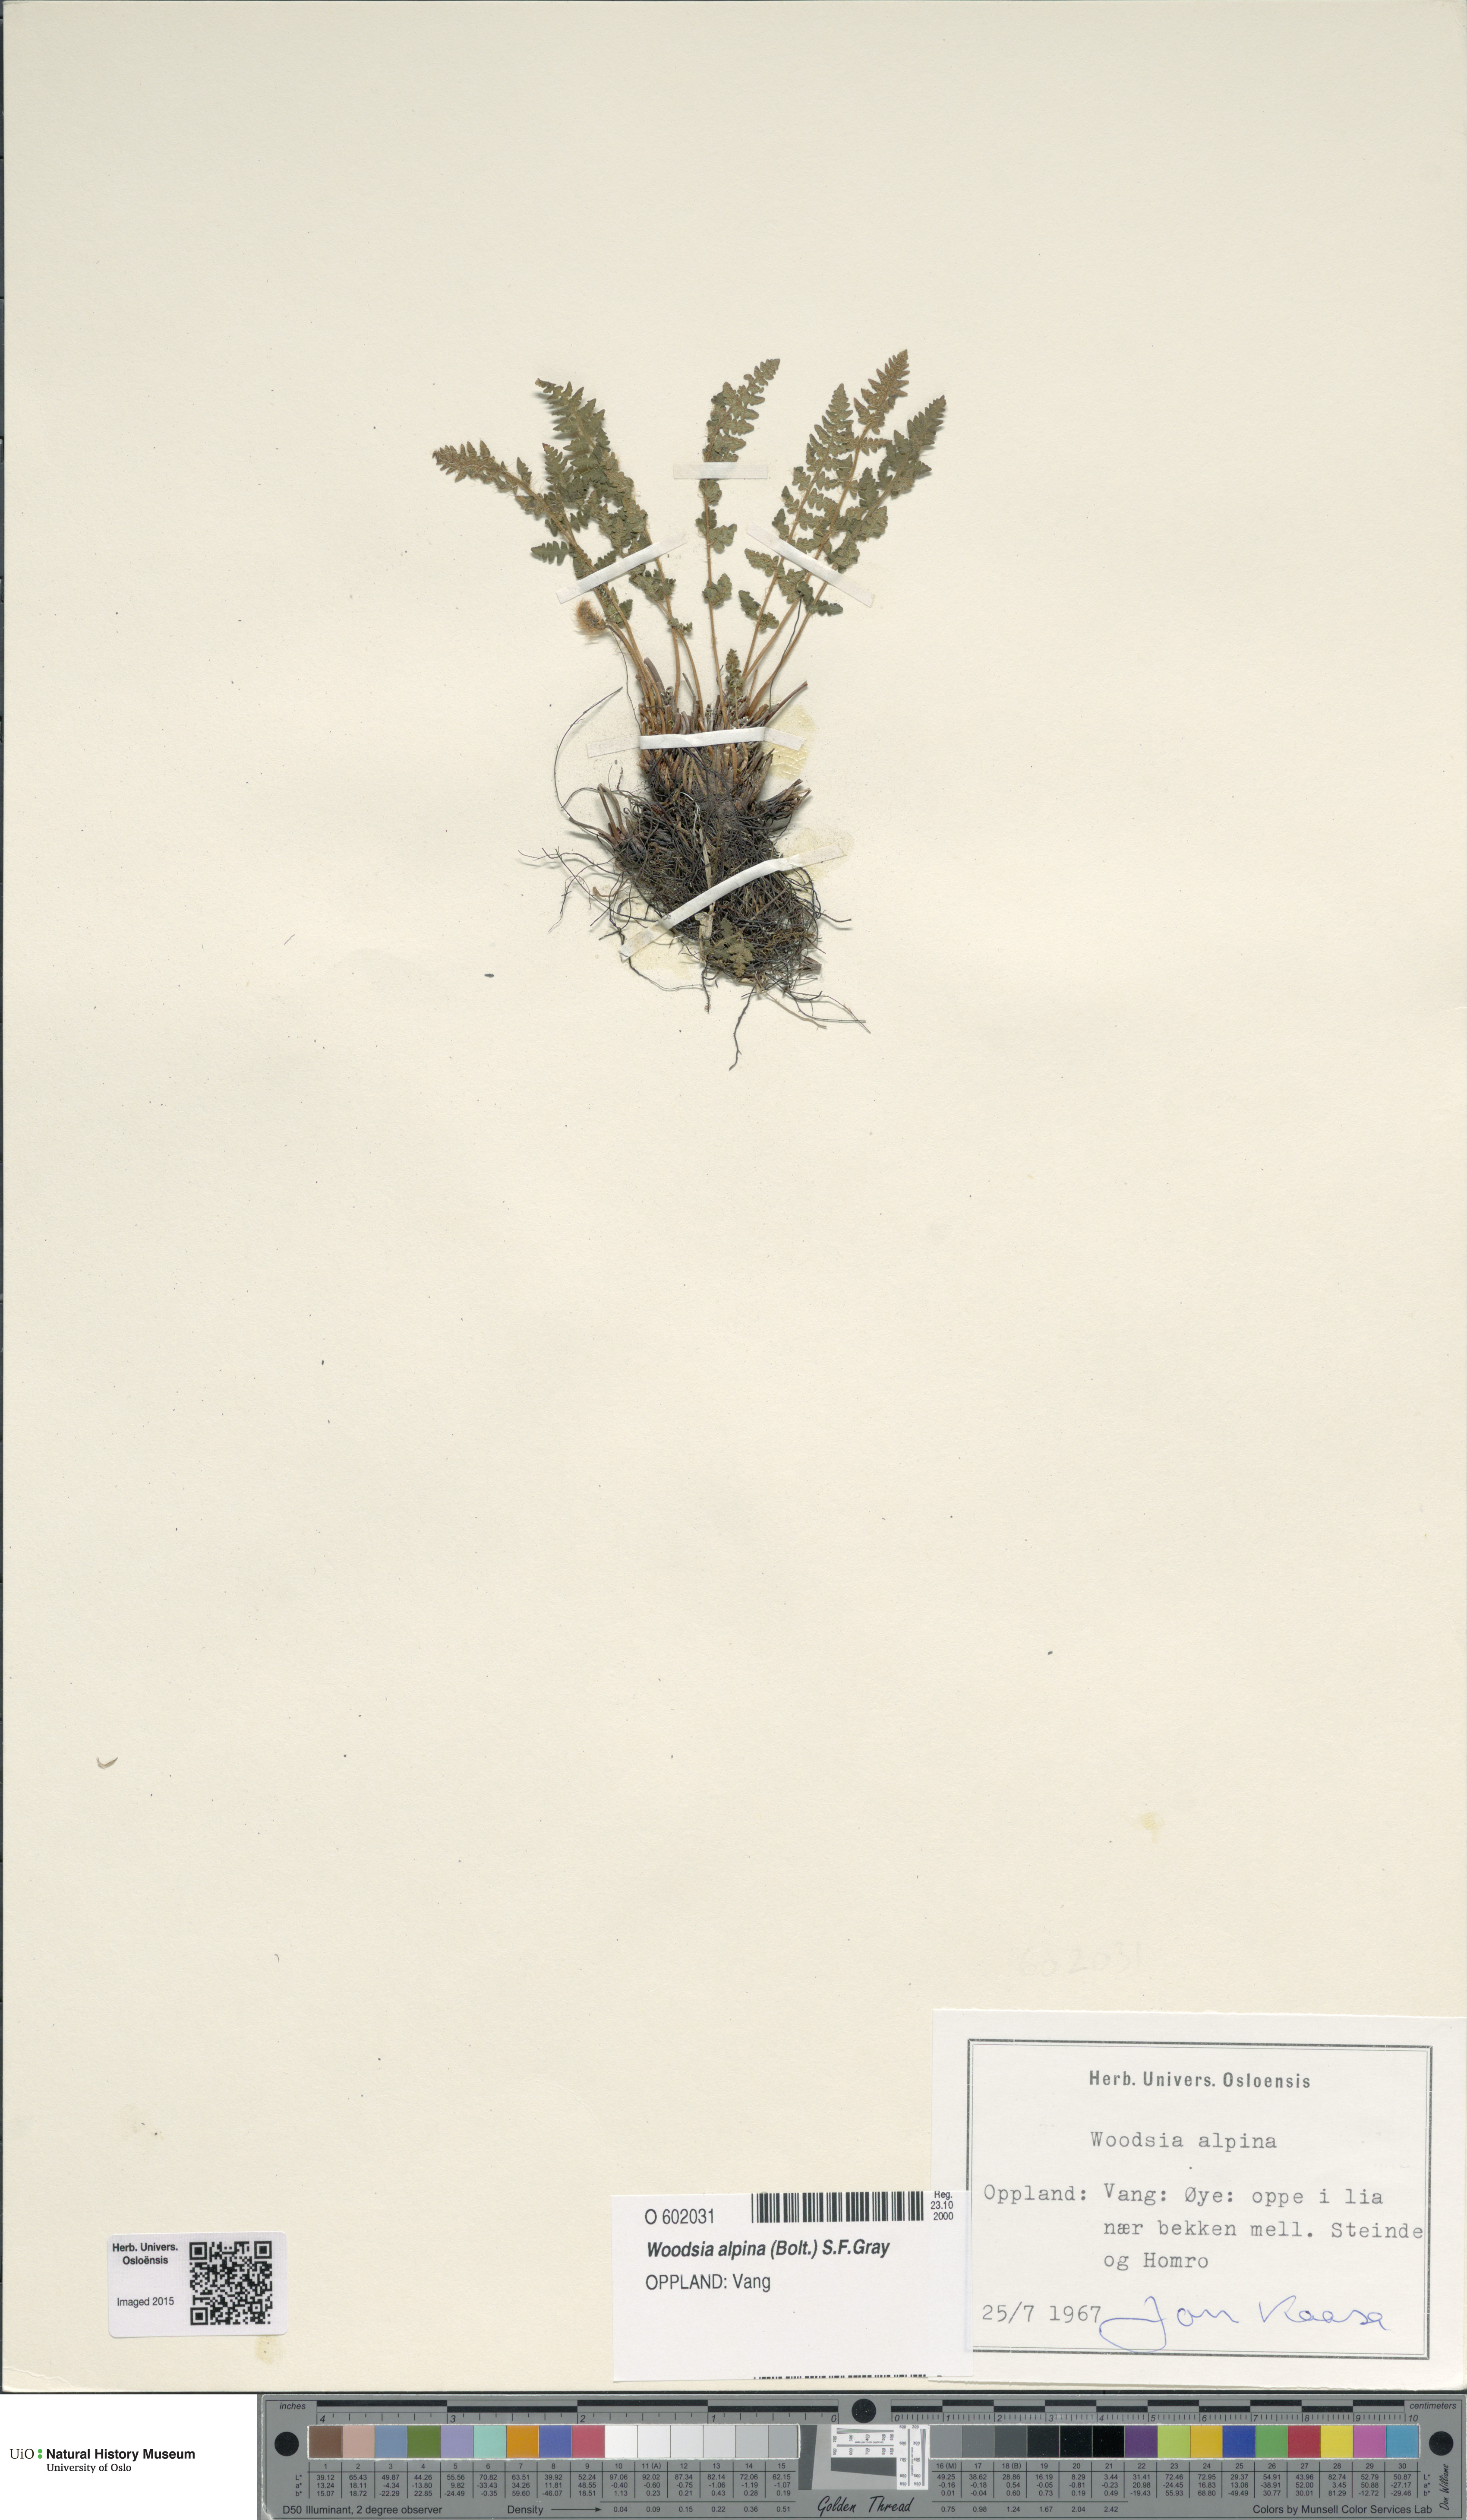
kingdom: Plantae
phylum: Tracheophyta
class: Polypodiopsida
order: Polypodiales
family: Woodsiaceae
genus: Woodsia
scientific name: Woodsia alpina
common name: Alpine woodsia
